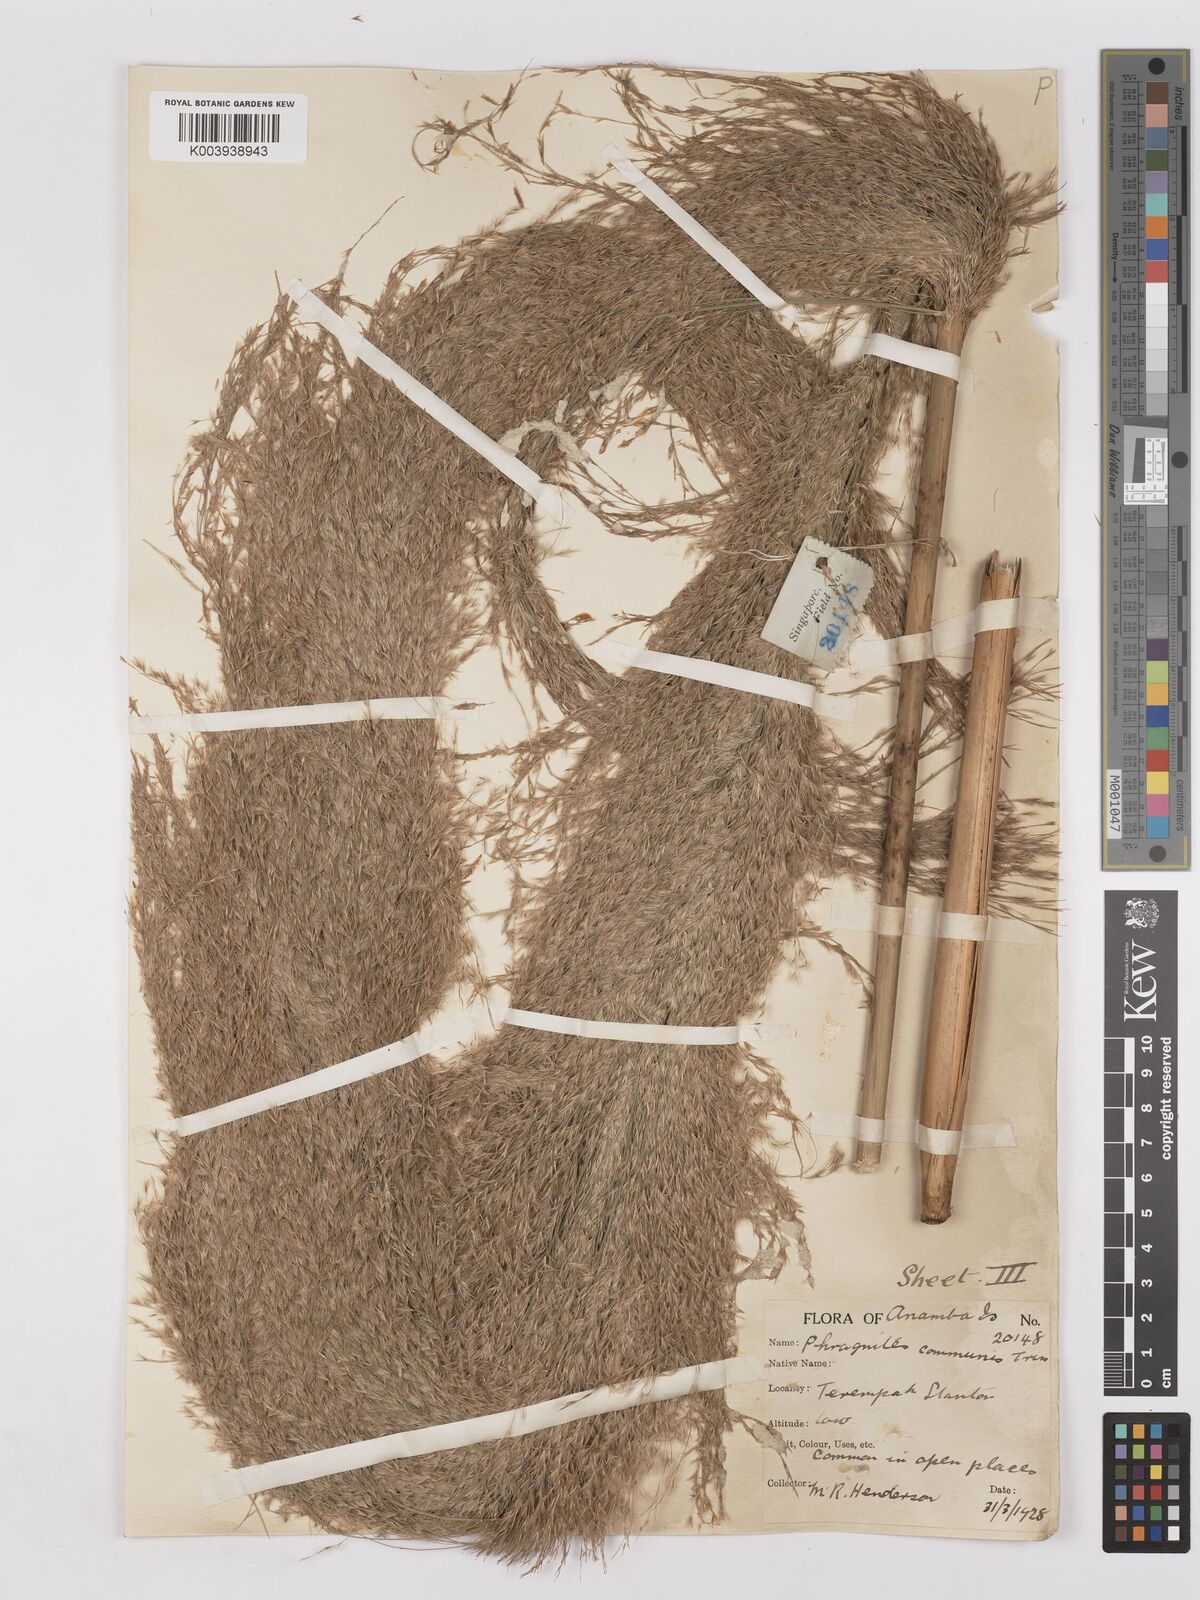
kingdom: Plantae
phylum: Tracheophyta
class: Liliopsida
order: Poales
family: Poaceae
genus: Phragmites
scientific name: Phragmites
